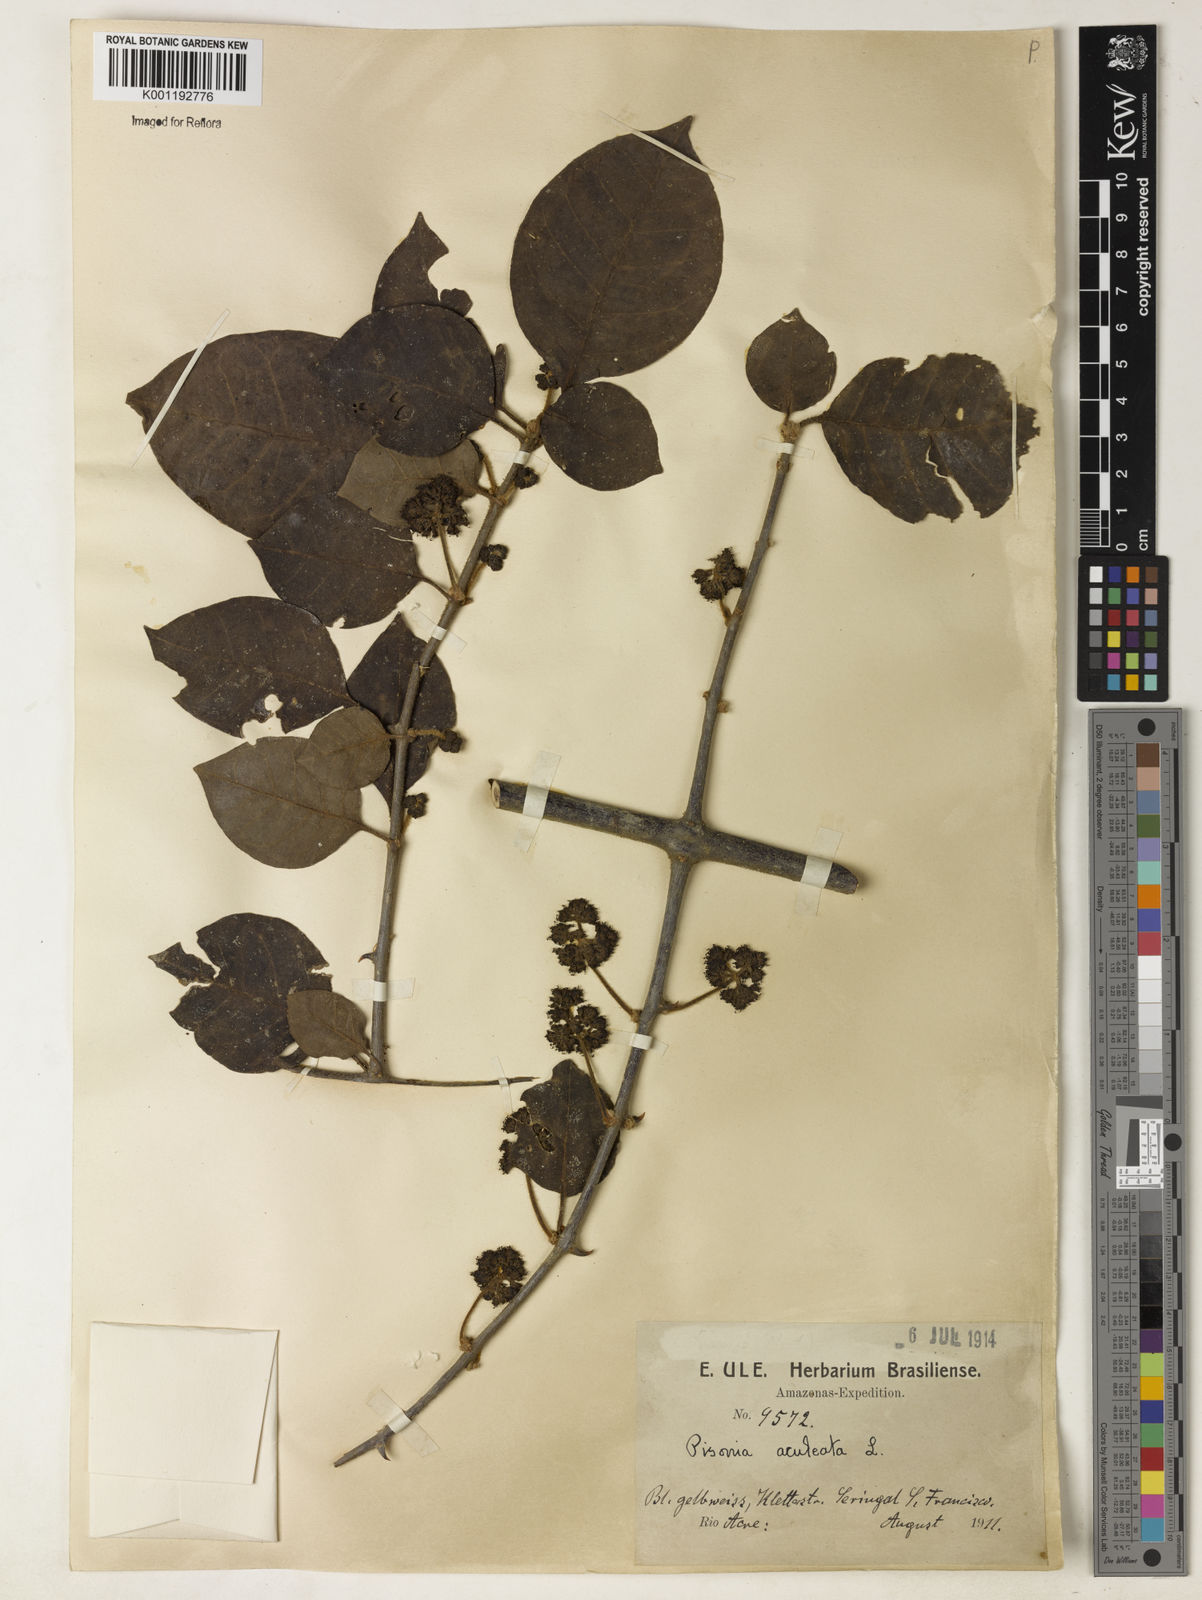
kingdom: Plantae
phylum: Tracheophyta
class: Magnoliopsida
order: Caryophyllales
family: Nyctaginaceae
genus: Pisonia
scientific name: Pisonia aculeata
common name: Cockspur vine
